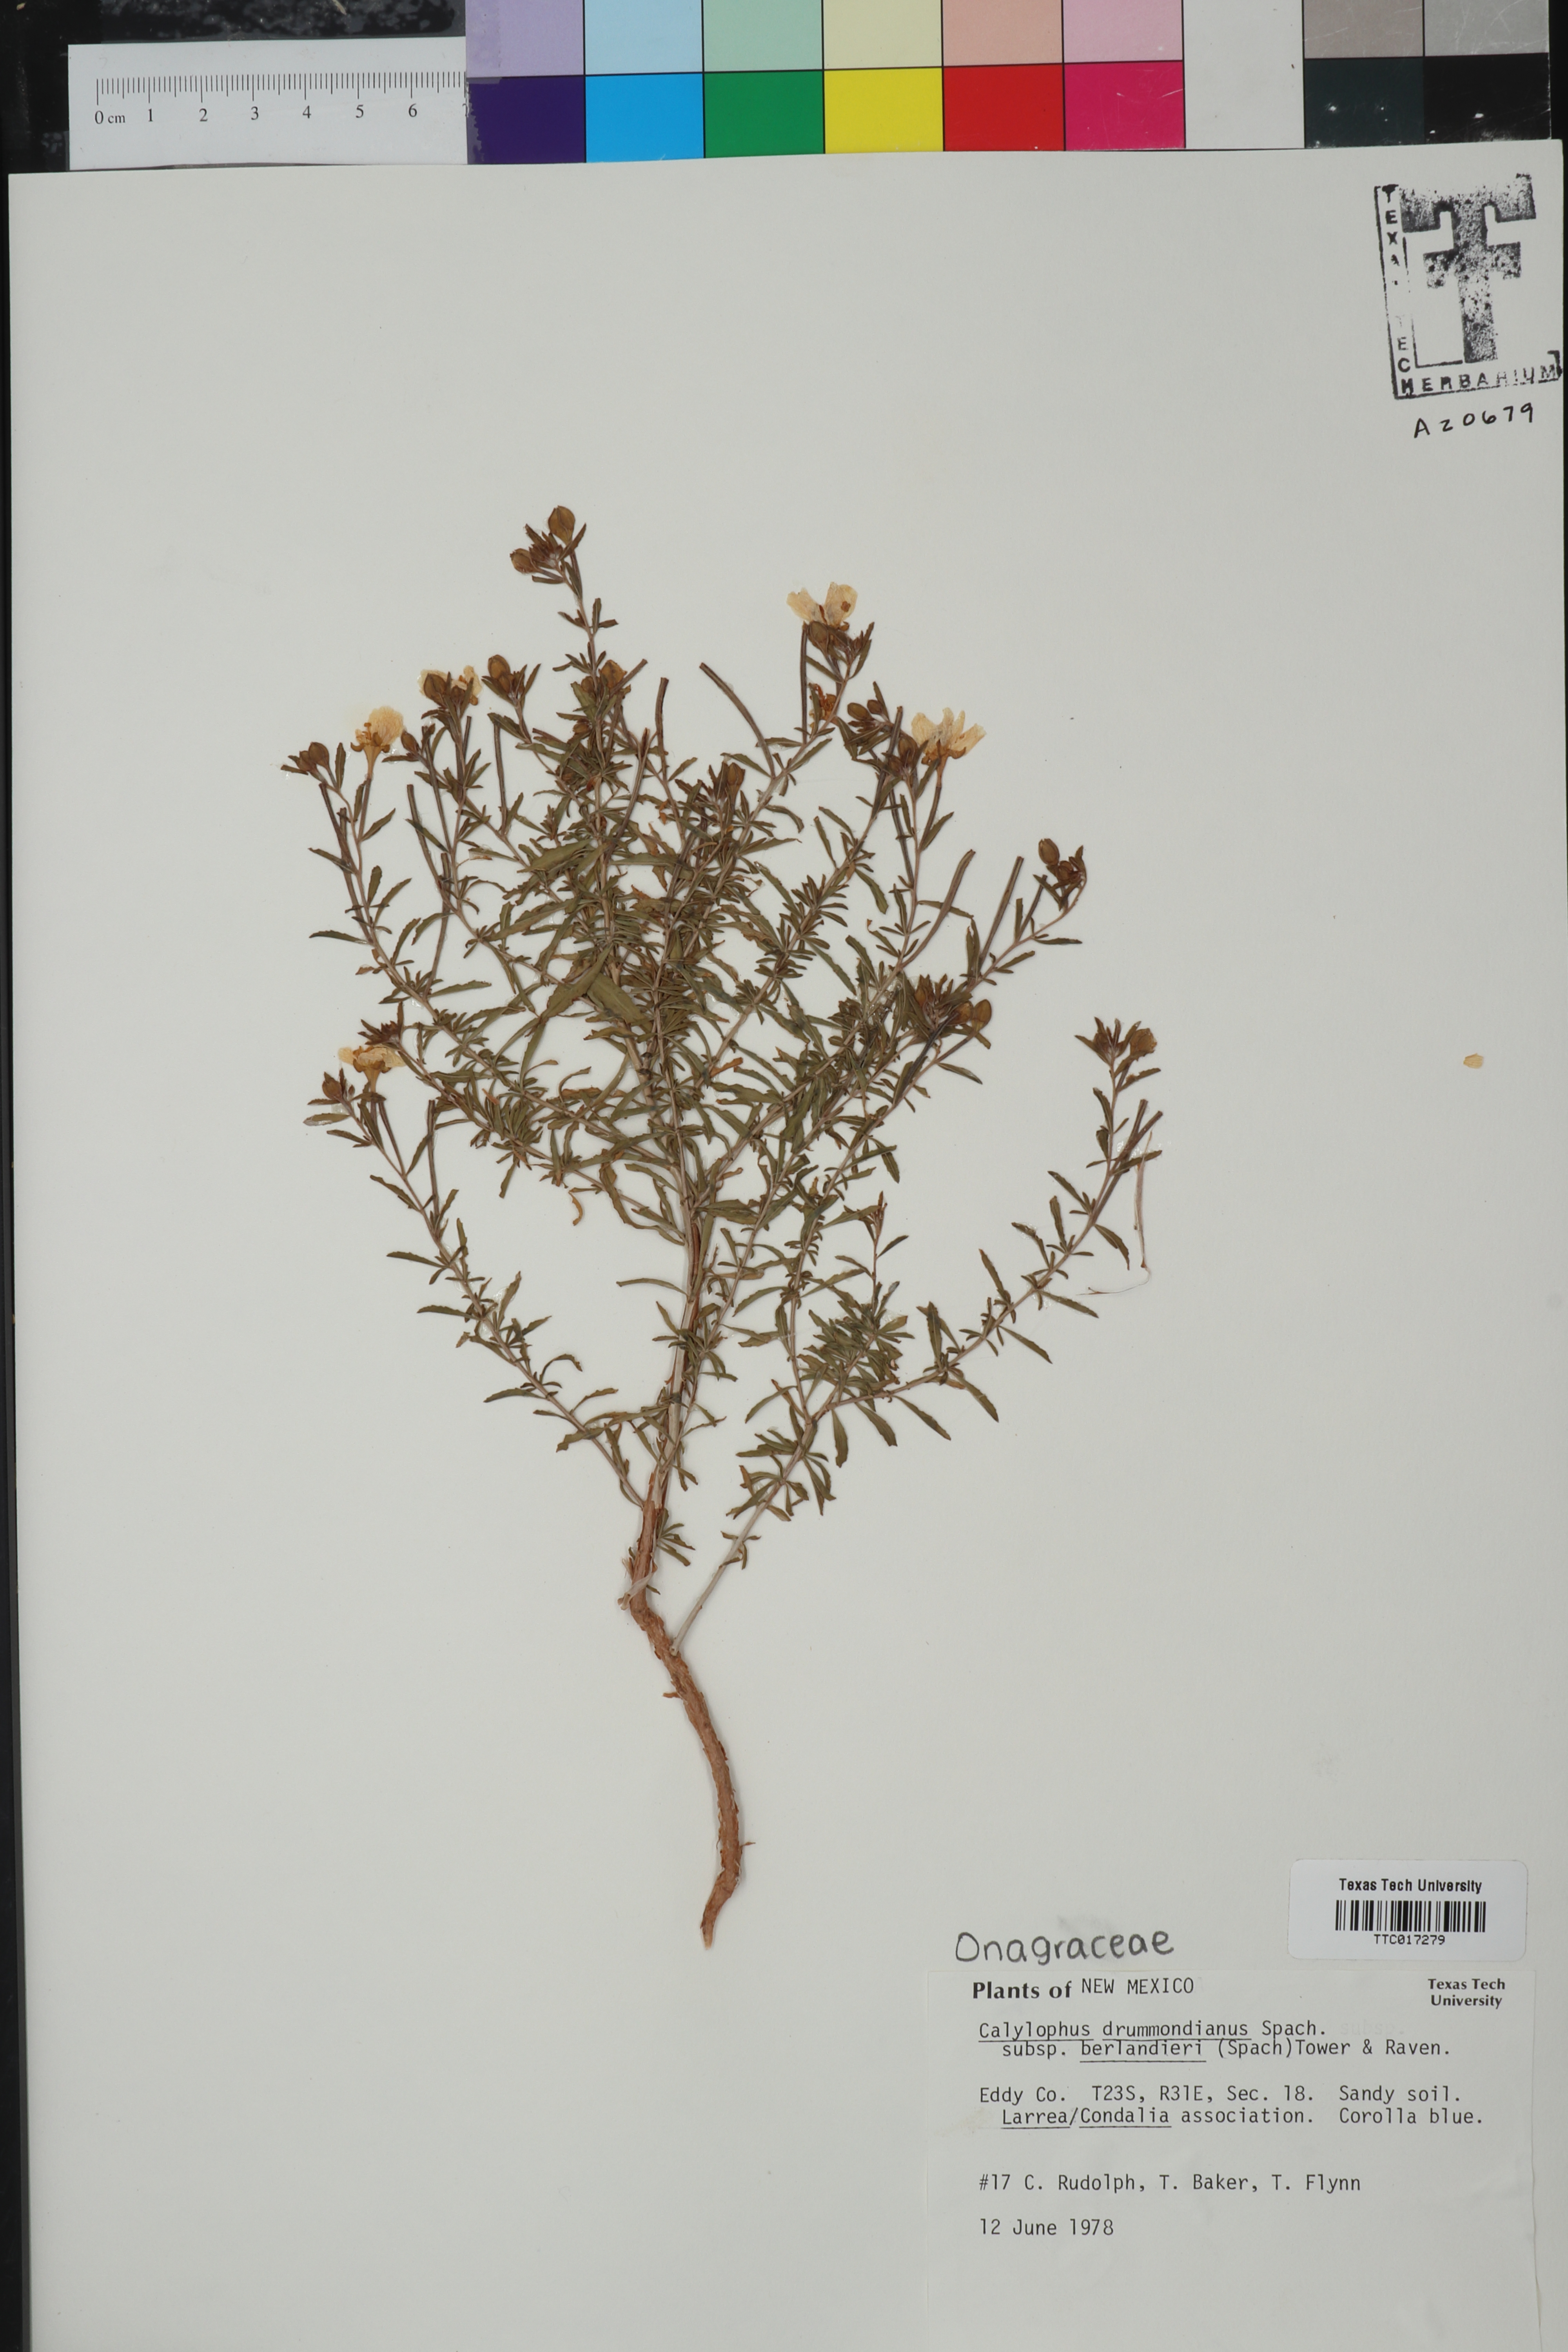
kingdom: Plantae
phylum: Tracheophyta
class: Magnoliopsida
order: Myrtales
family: Onagraceae
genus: Oenothera
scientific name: Oenothera capillifolia
